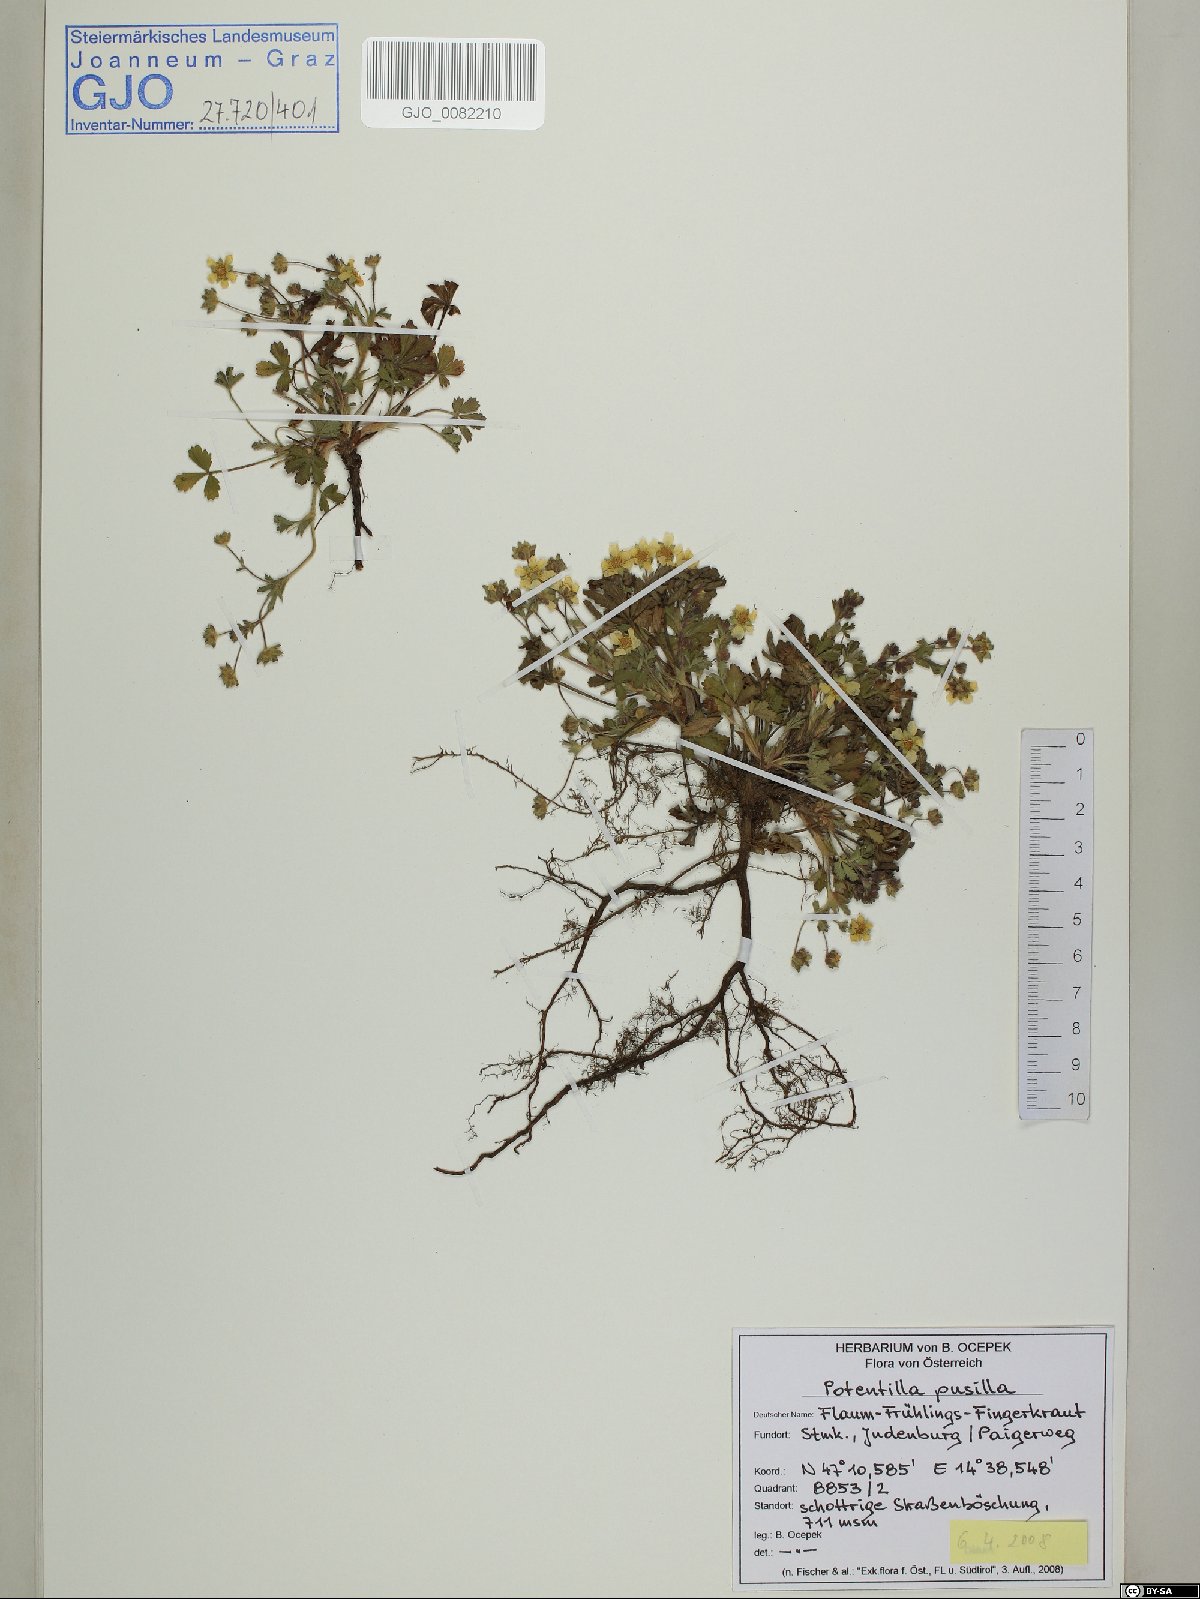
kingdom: Plantae
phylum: Tracheophyta
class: Magnoliopsida
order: Rosales
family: Rosaceae
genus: Potentilla
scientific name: Potentilla pusilla
